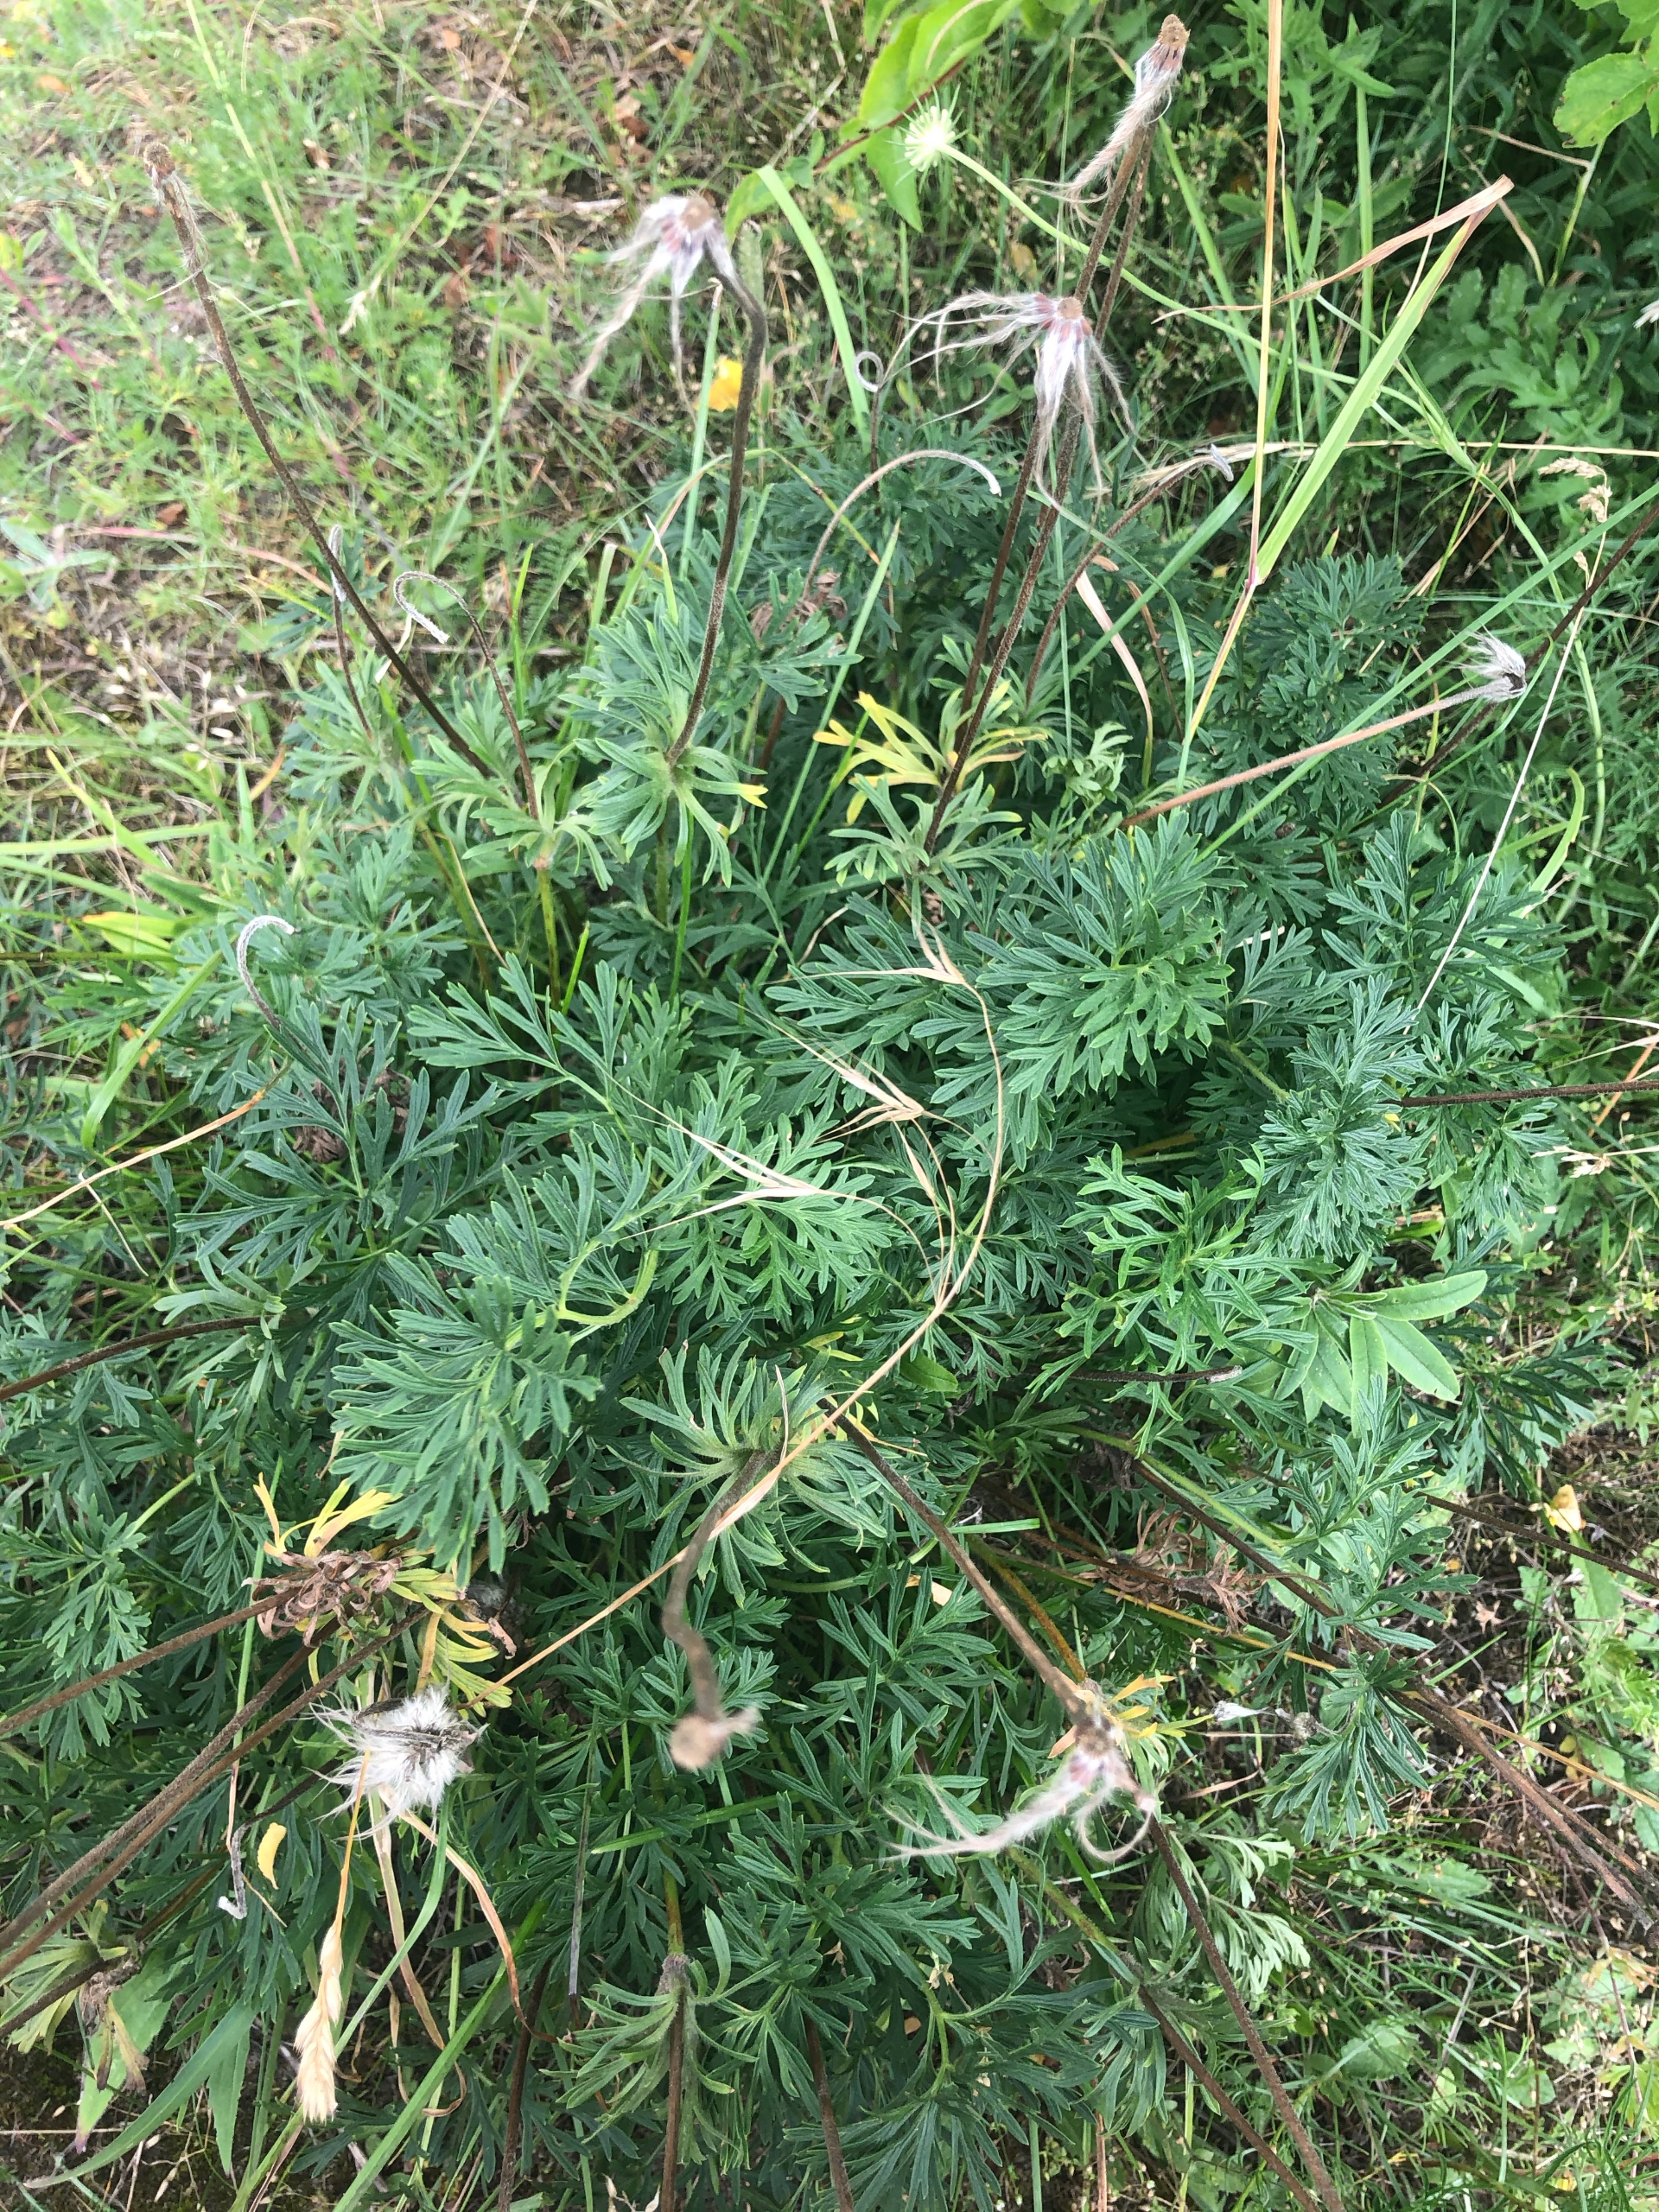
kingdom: Plantae
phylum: Tracheophyta
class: Magnoliopsida
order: Ranunculales
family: Ranunculaceae
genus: Pulsatilla
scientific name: Pulsatilla pratensis
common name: Nikkende kobjælde
